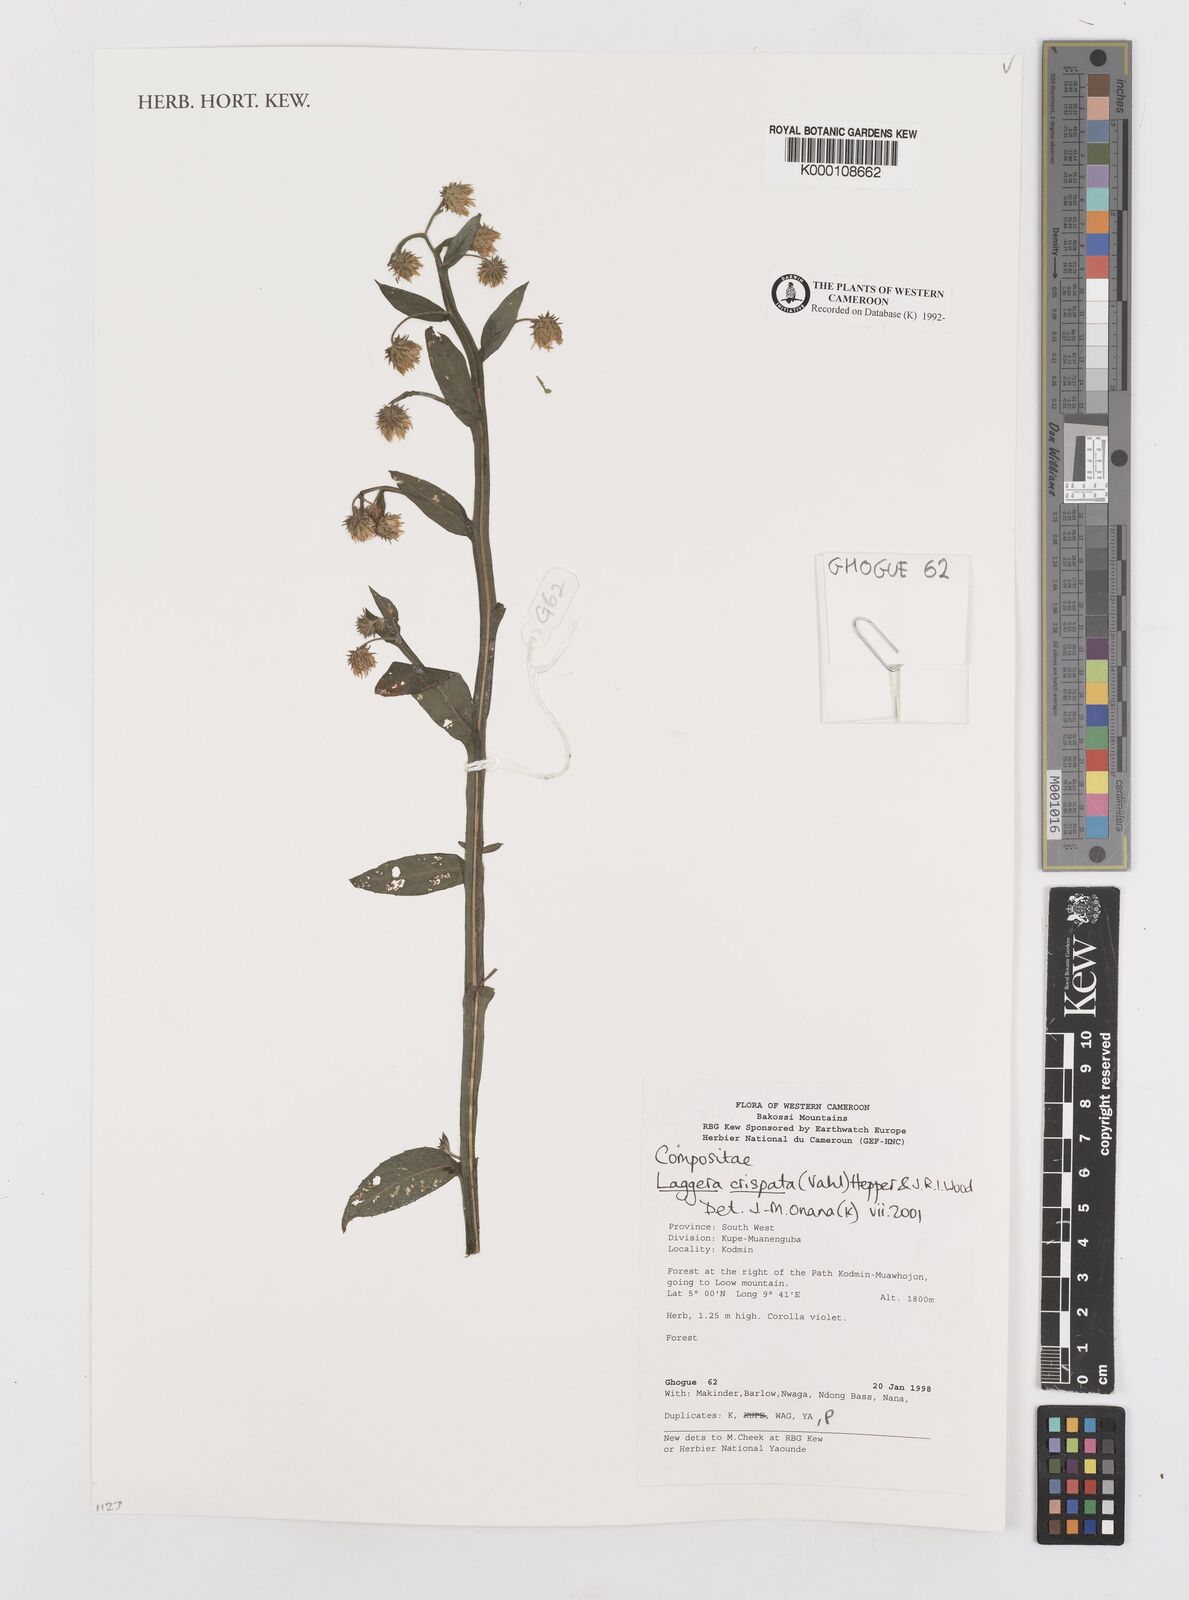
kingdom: Plantae
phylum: Tracheophyta
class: Magnoliopsida
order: Asterales
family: Asteraceae
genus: Laggera
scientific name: Laggera crispata
